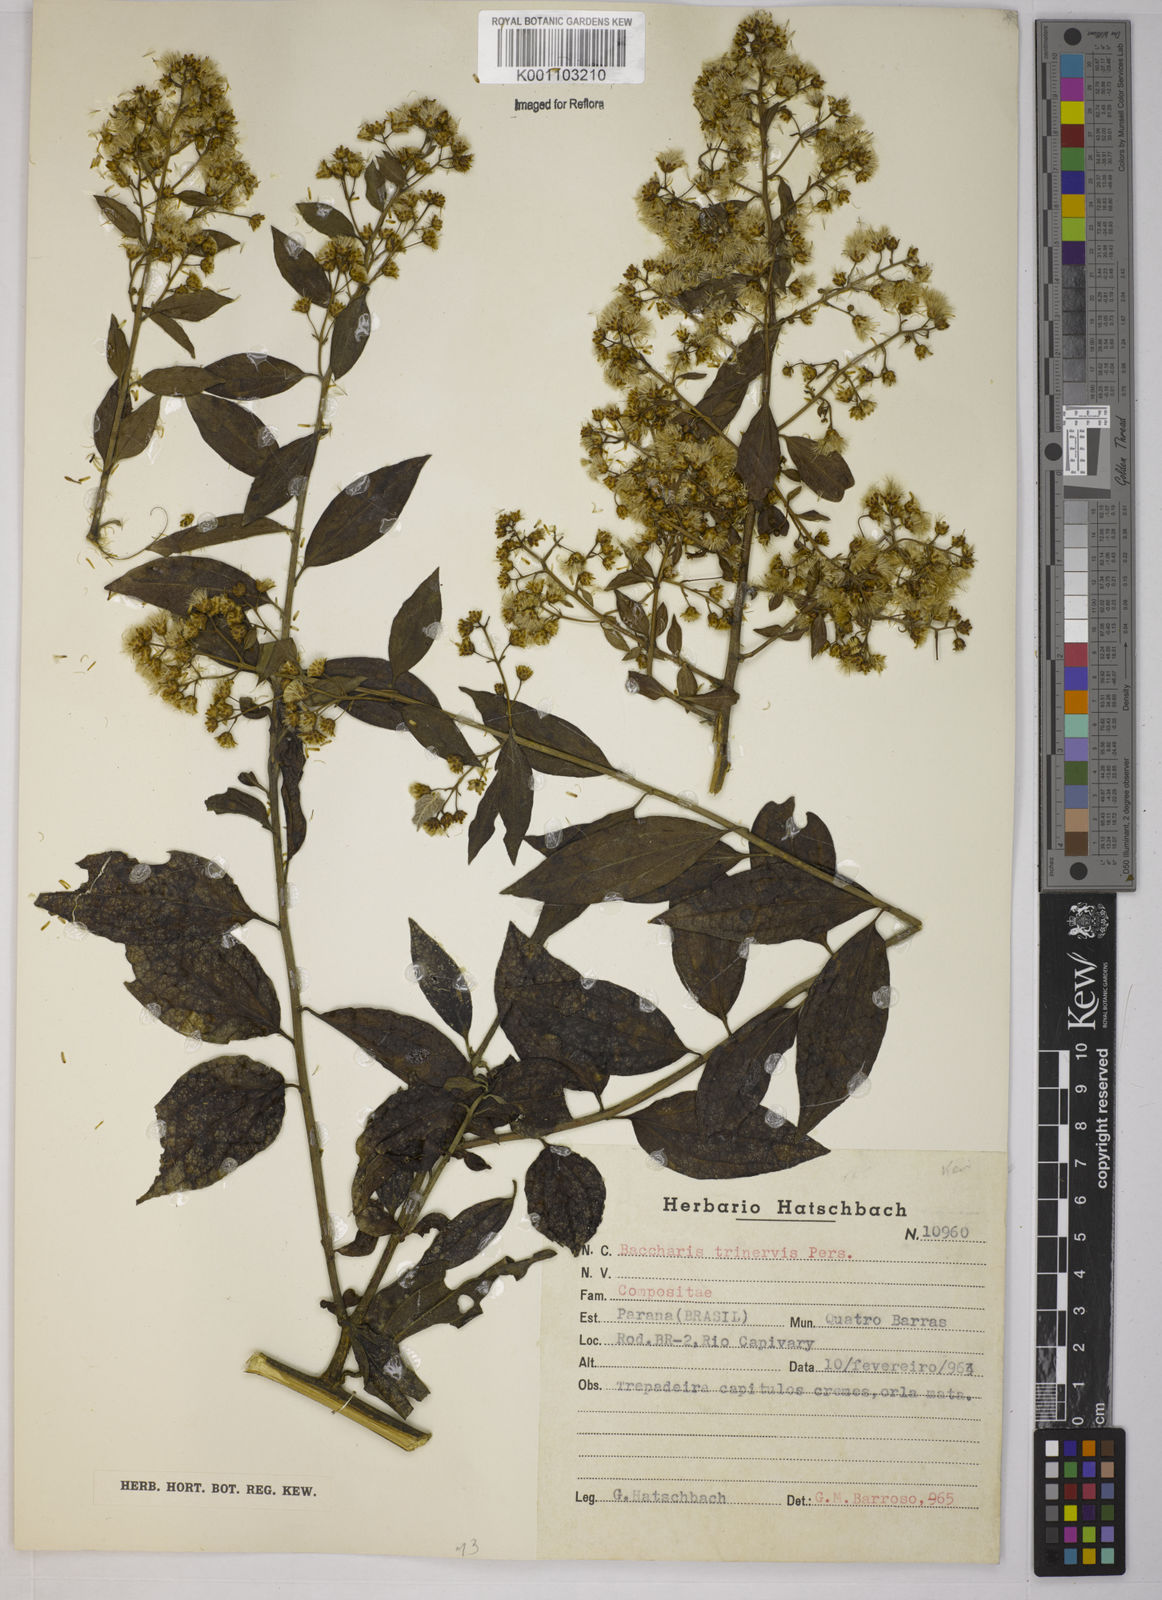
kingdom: Plantae
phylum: Tracheophyta
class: Magnoliopsida
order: Asterales
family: Asteraceae
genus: Baccharis
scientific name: Baccharis trinervis
